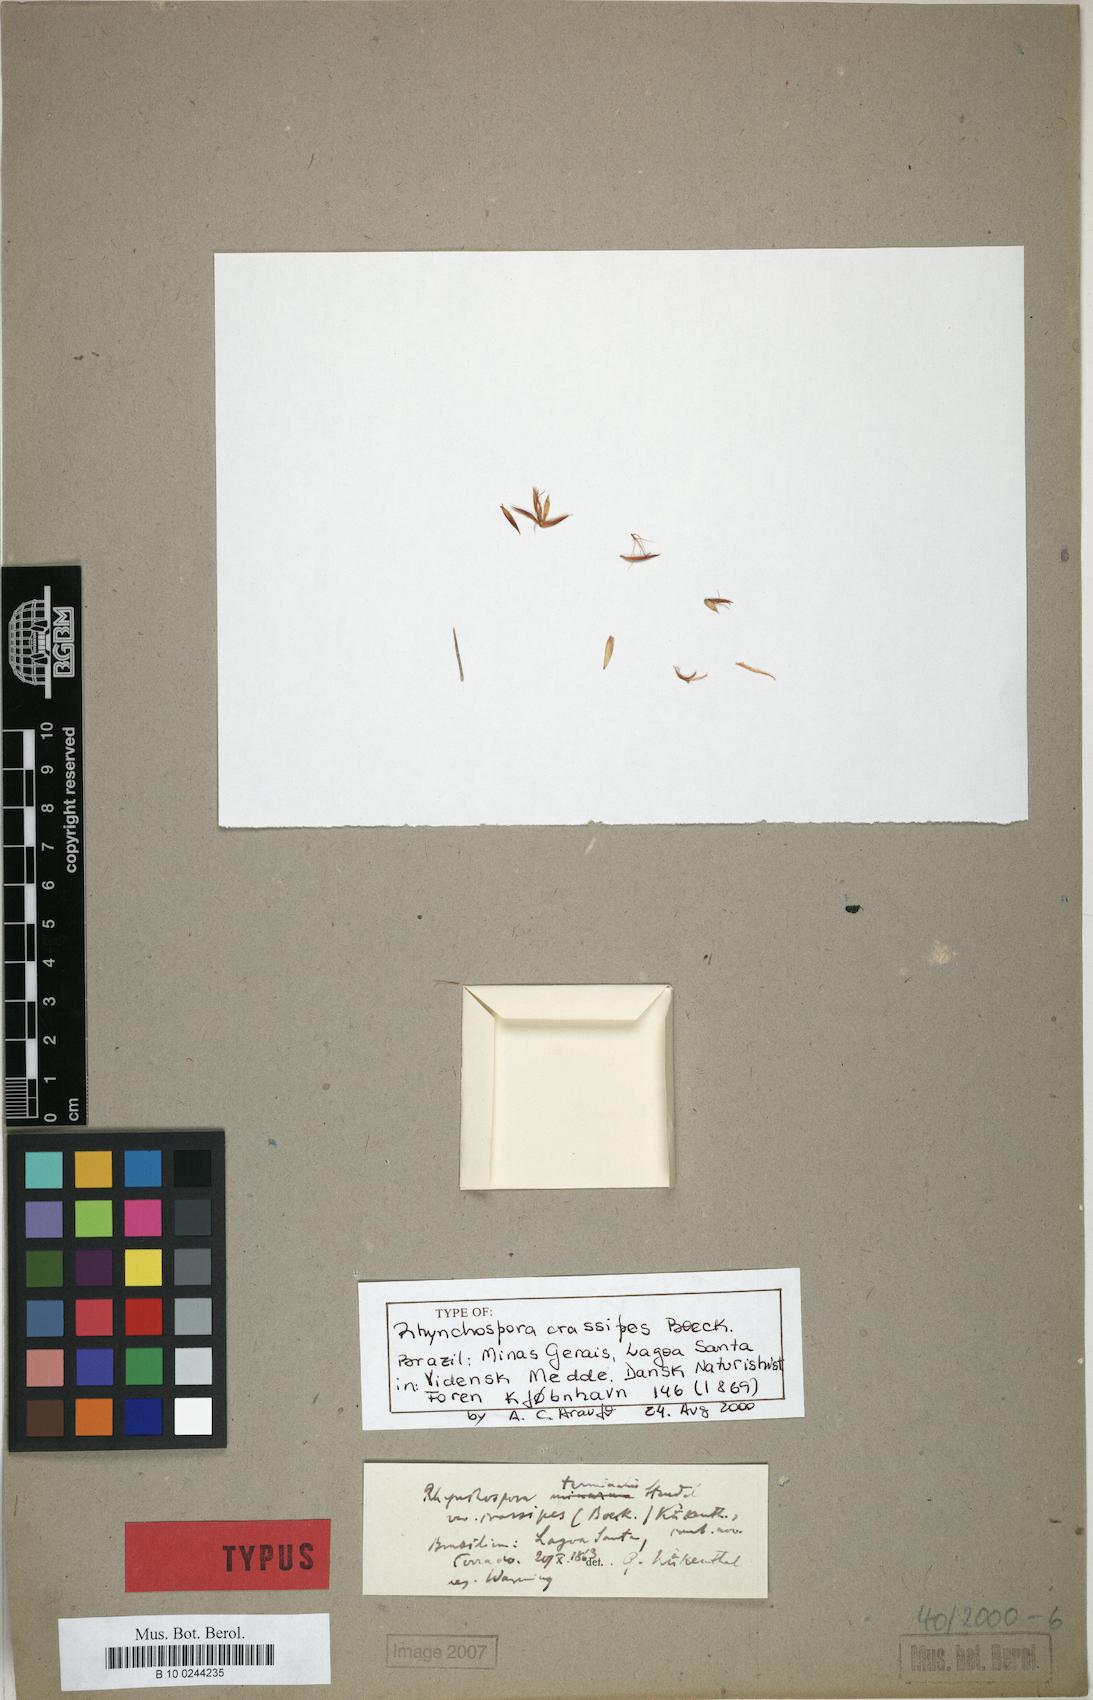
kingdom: Plantae
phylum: Tracheophyta
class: Liliopsida
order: Poales
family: Cyperaceae
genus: Rhynchospora
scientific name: Rhynchospora terminalis
